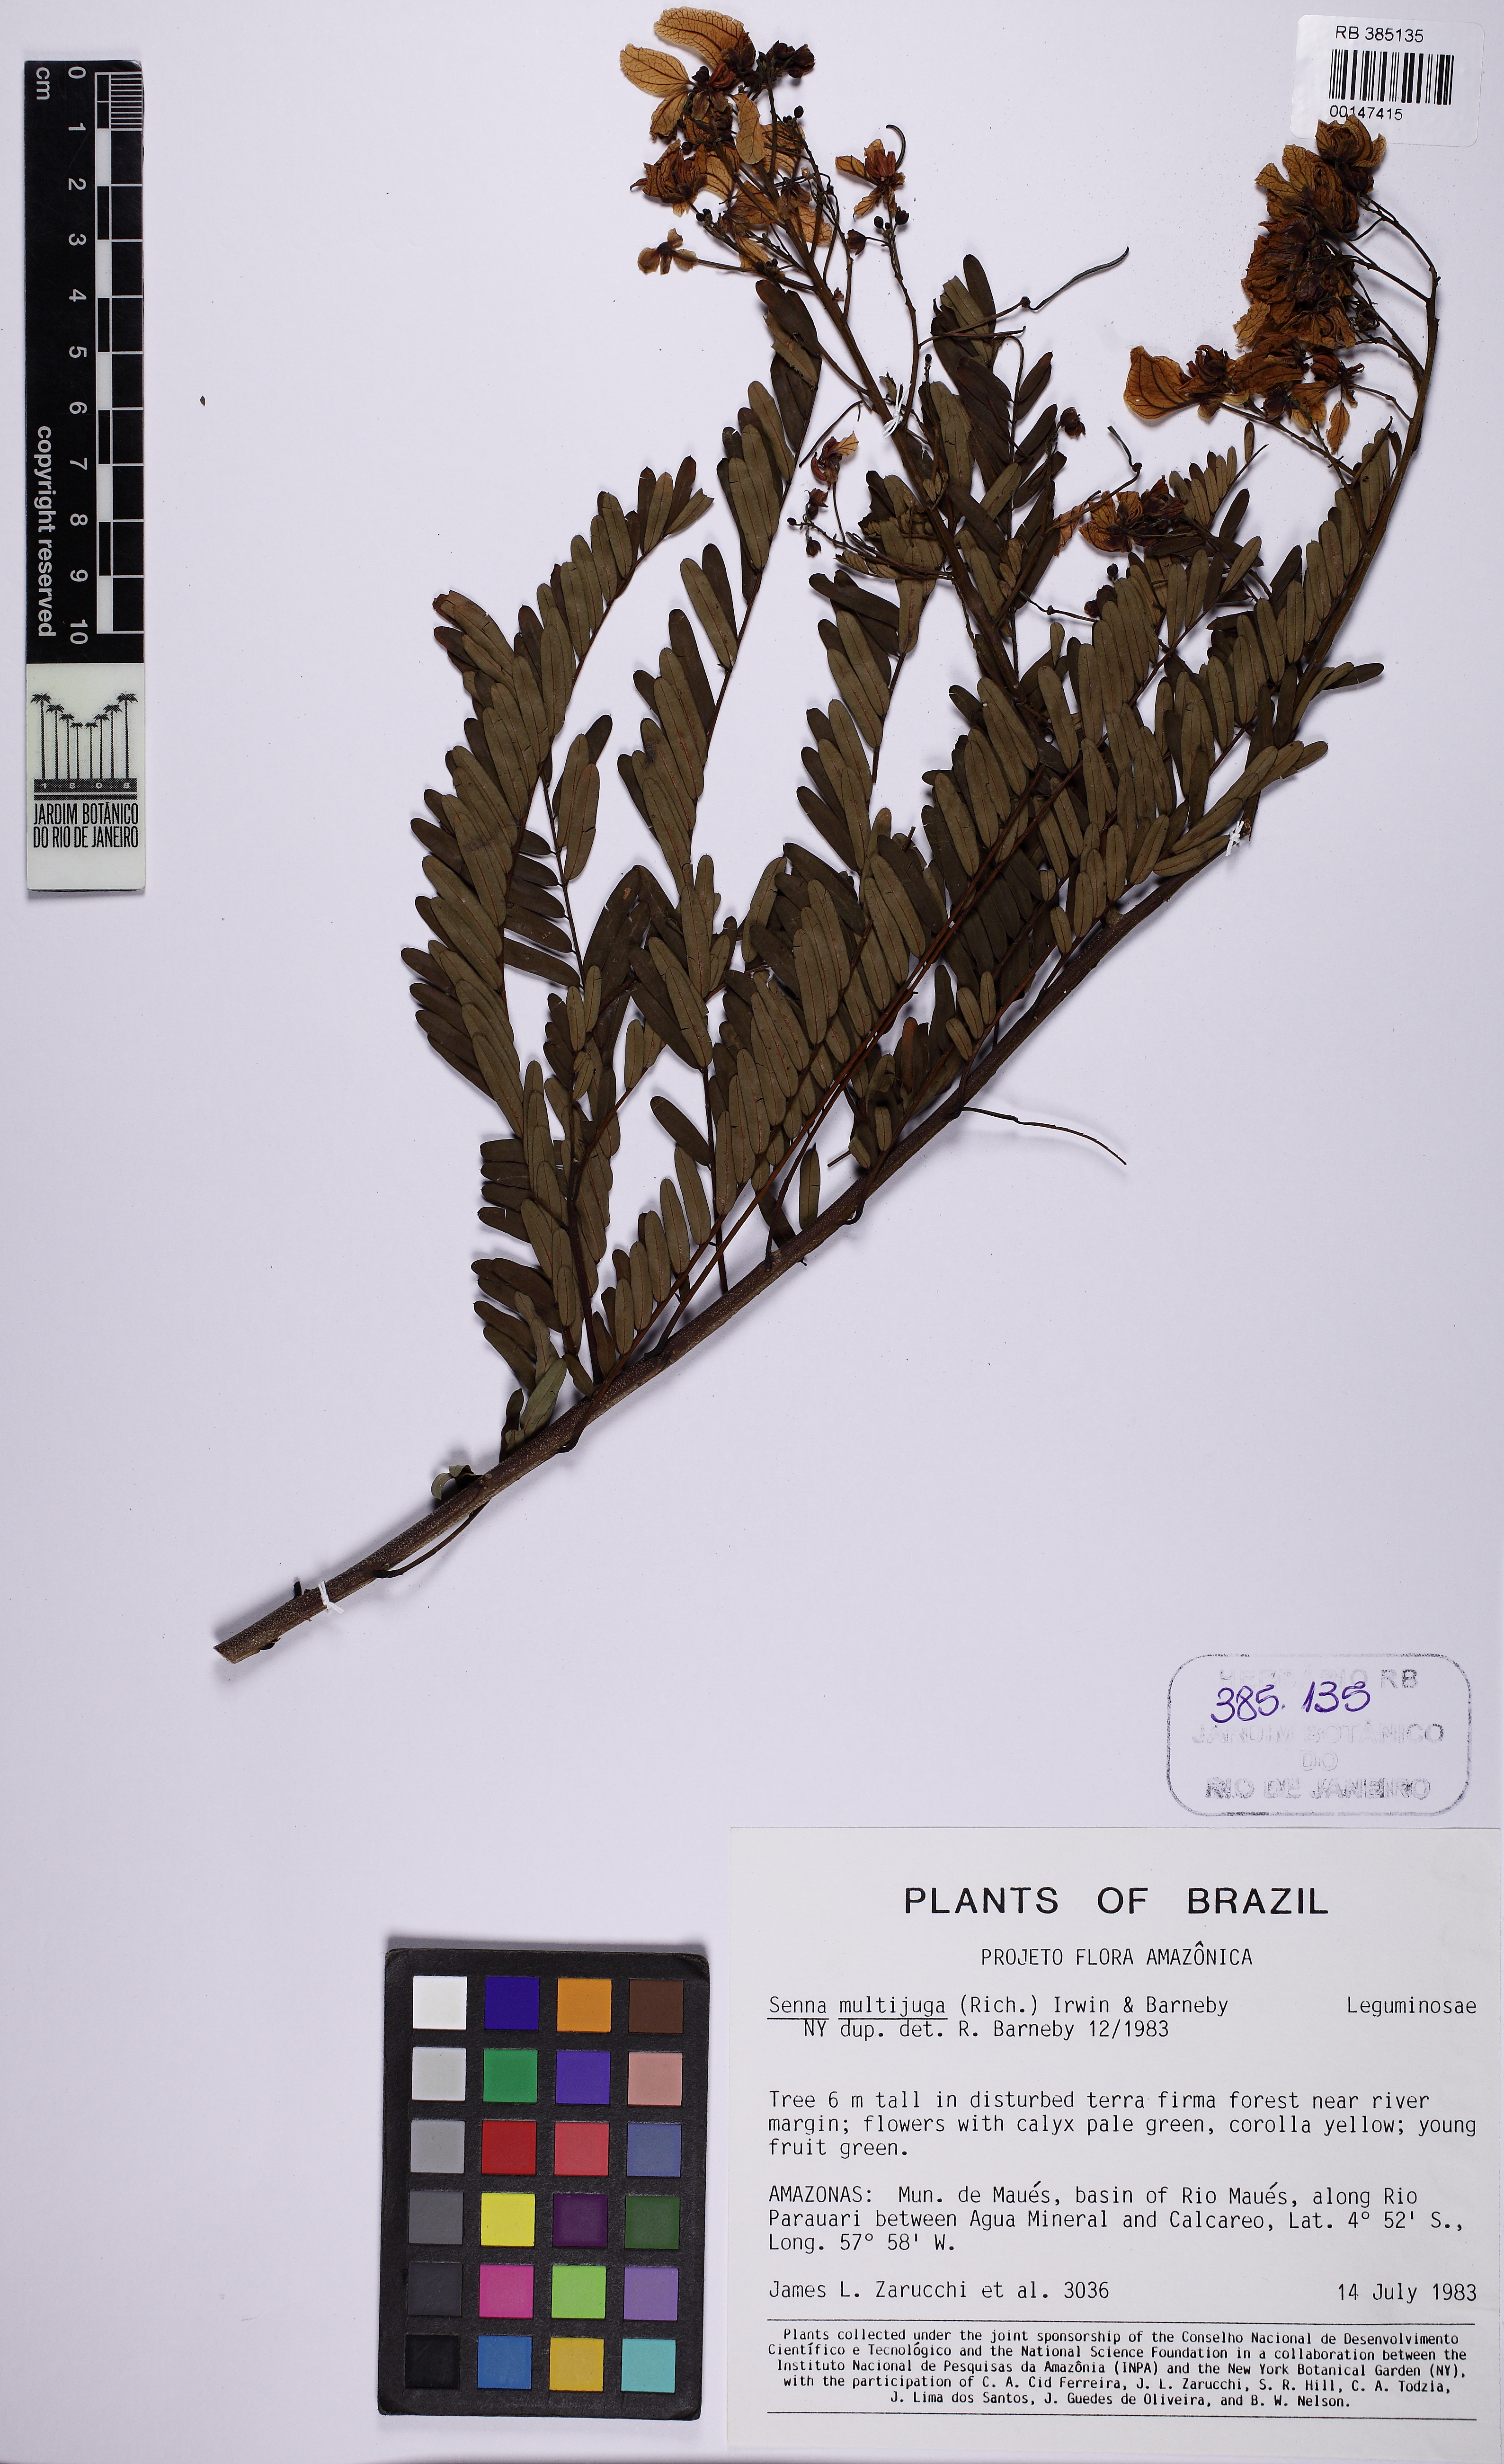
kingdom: Plantae
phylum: Tracheophyta
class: Magnoliopsida
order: Fabales
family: Fabaceae
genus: Senna
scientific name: Senna multijuga
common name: False sicklepod
